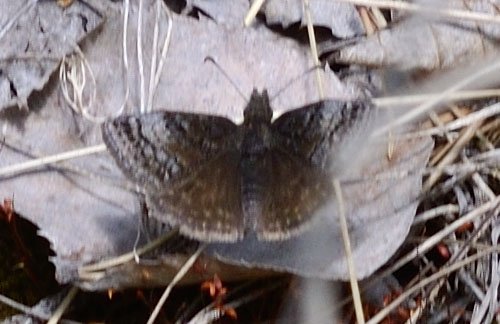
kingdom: Animalia
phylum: Arthropoda
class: Insecta
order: Lepidoptera
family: Hesperiidae
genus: Erynnis
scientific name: Erynnis icelus
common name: Dreamy Duskywing
